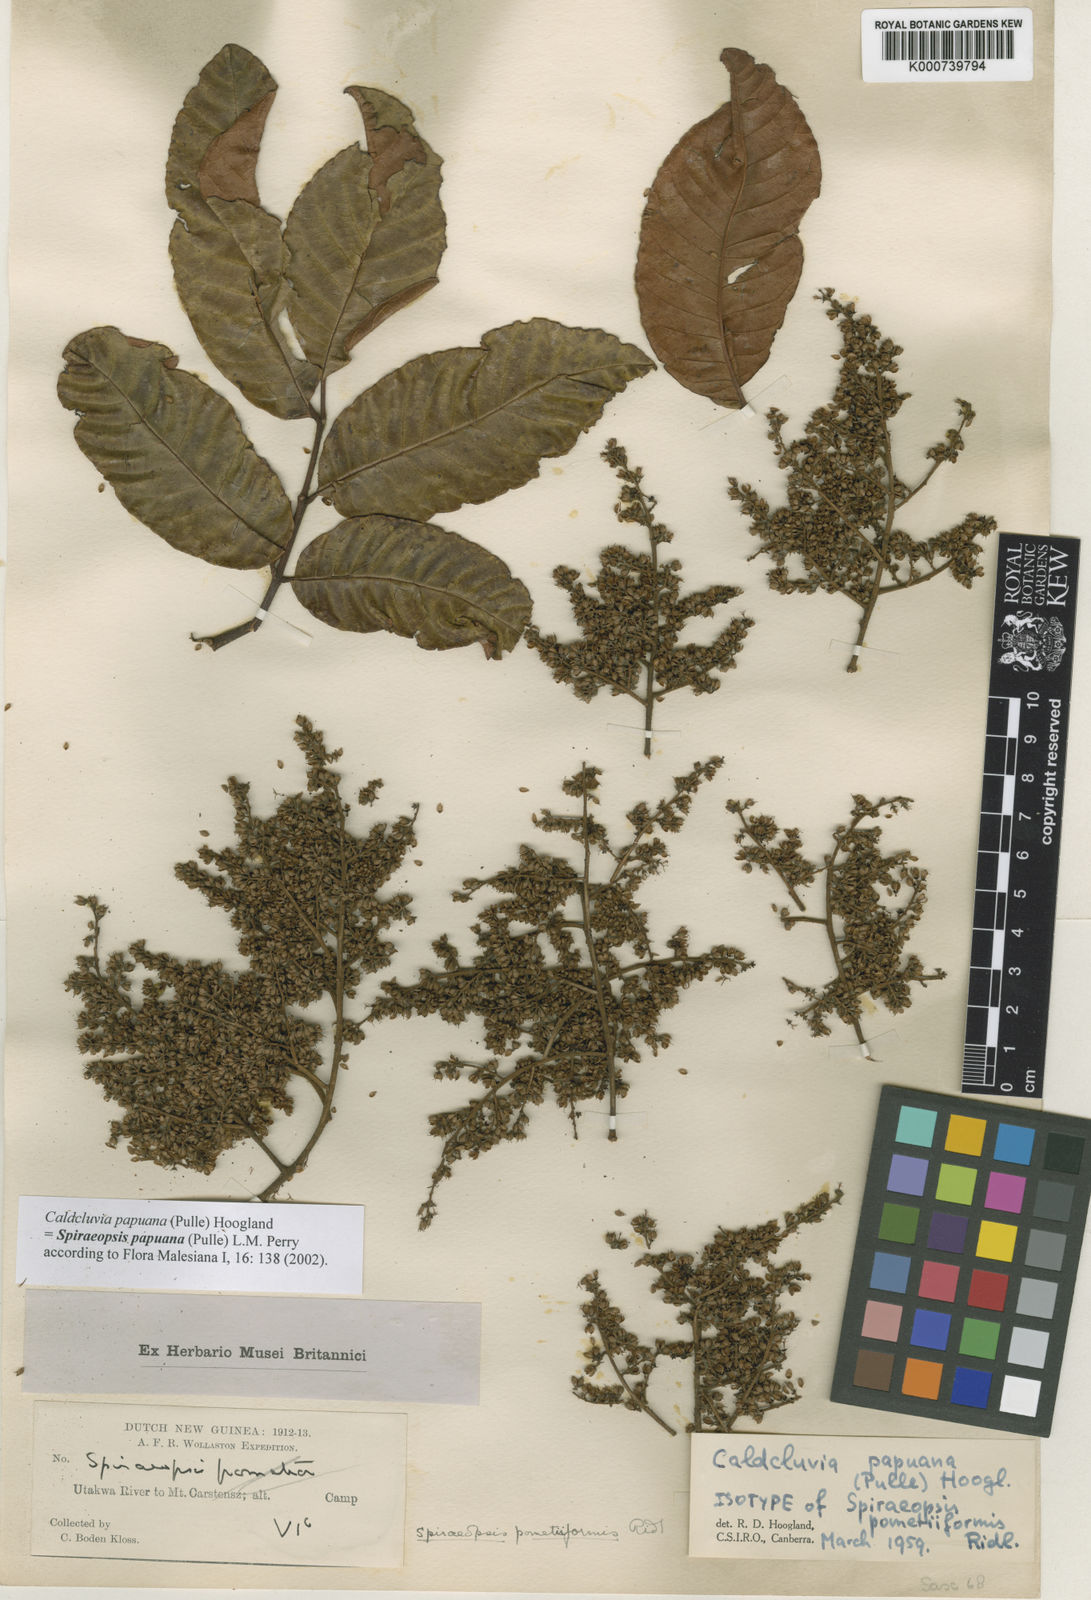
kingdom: Plantae
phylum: Tracheophyta
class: Magnoliopsida
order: Oxalidales
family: Cunoniaceae
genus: Ackama
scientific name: Ackama papuana
